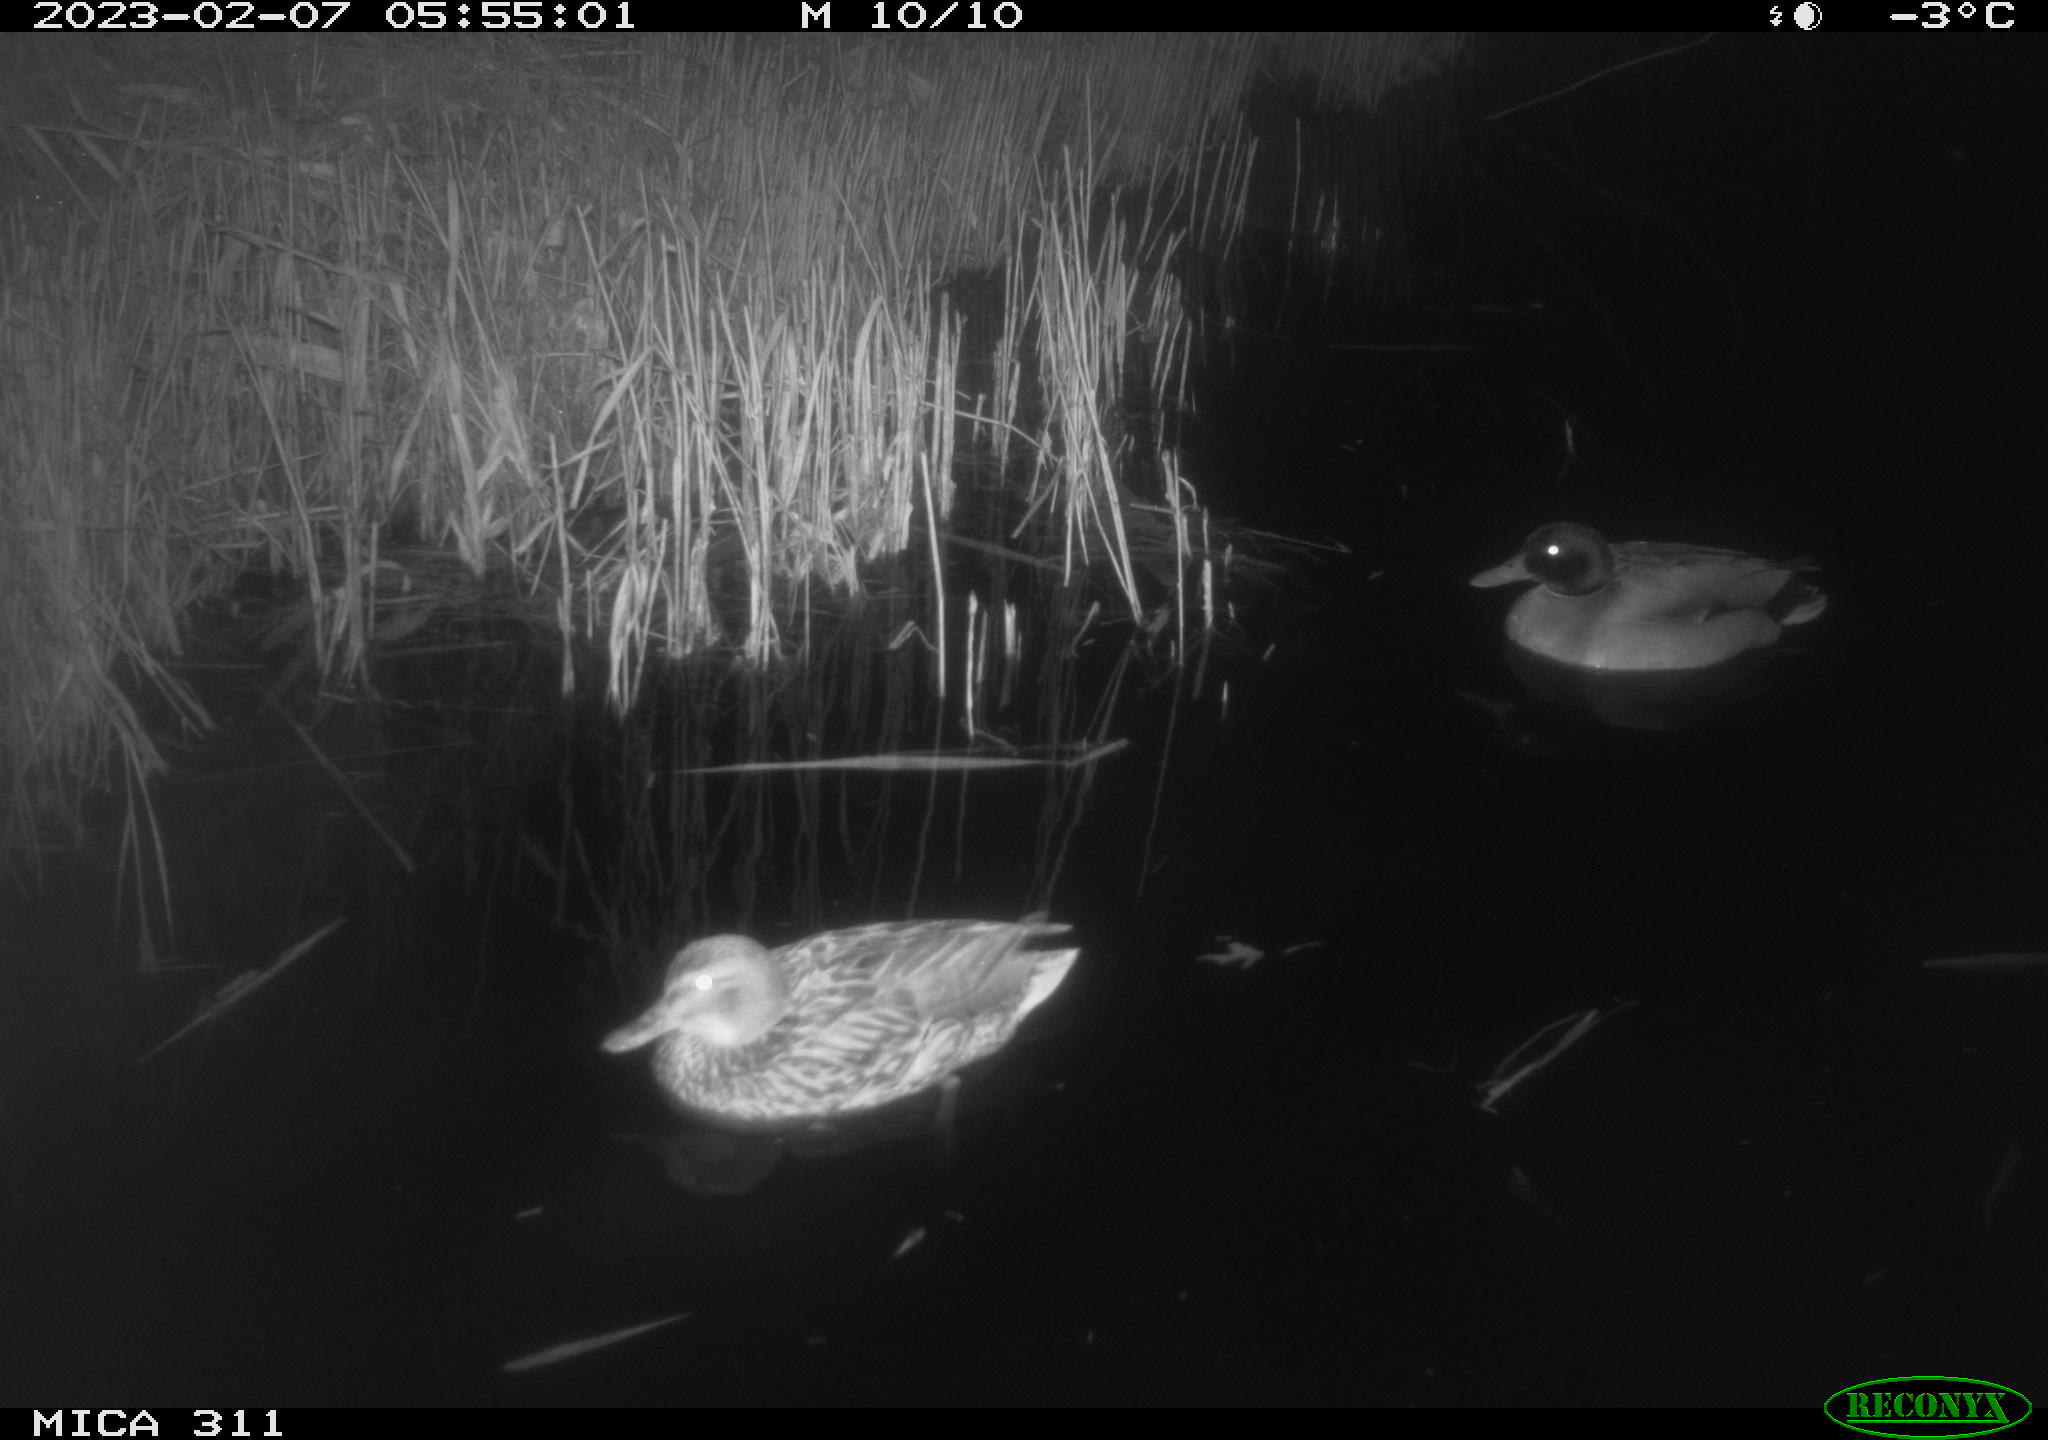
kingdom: Animalia
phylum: Chordata
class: Aves
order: Anseriformes
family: Anatidae
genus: Anas
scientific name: Anas platyrhynchos
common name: Mallard
